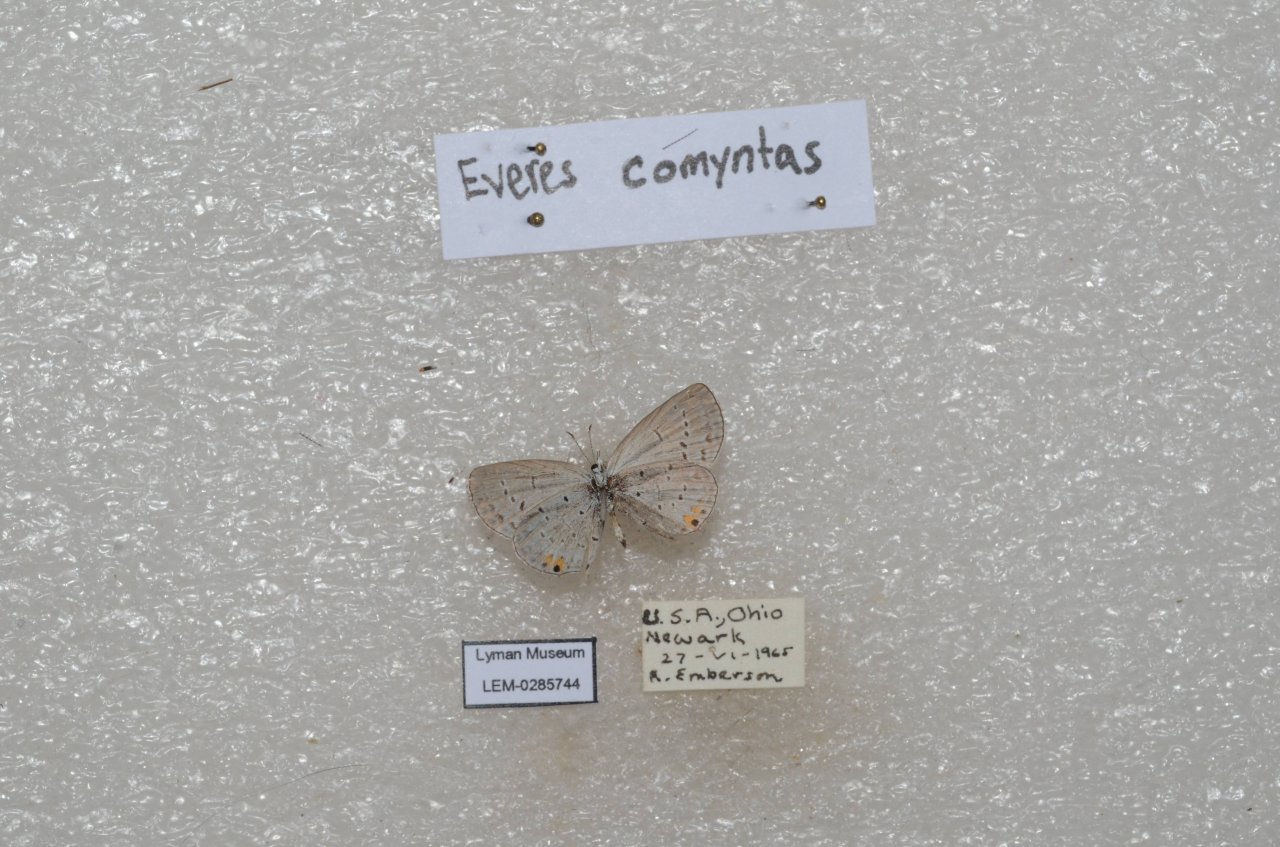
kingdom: Animalia
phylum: Arthropoda
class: Insecta
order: Lepidoptera
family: Lycaenidae
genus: Elkalyce
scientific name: Elkalyce comyntas
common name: Eastern Tailed-Blue
